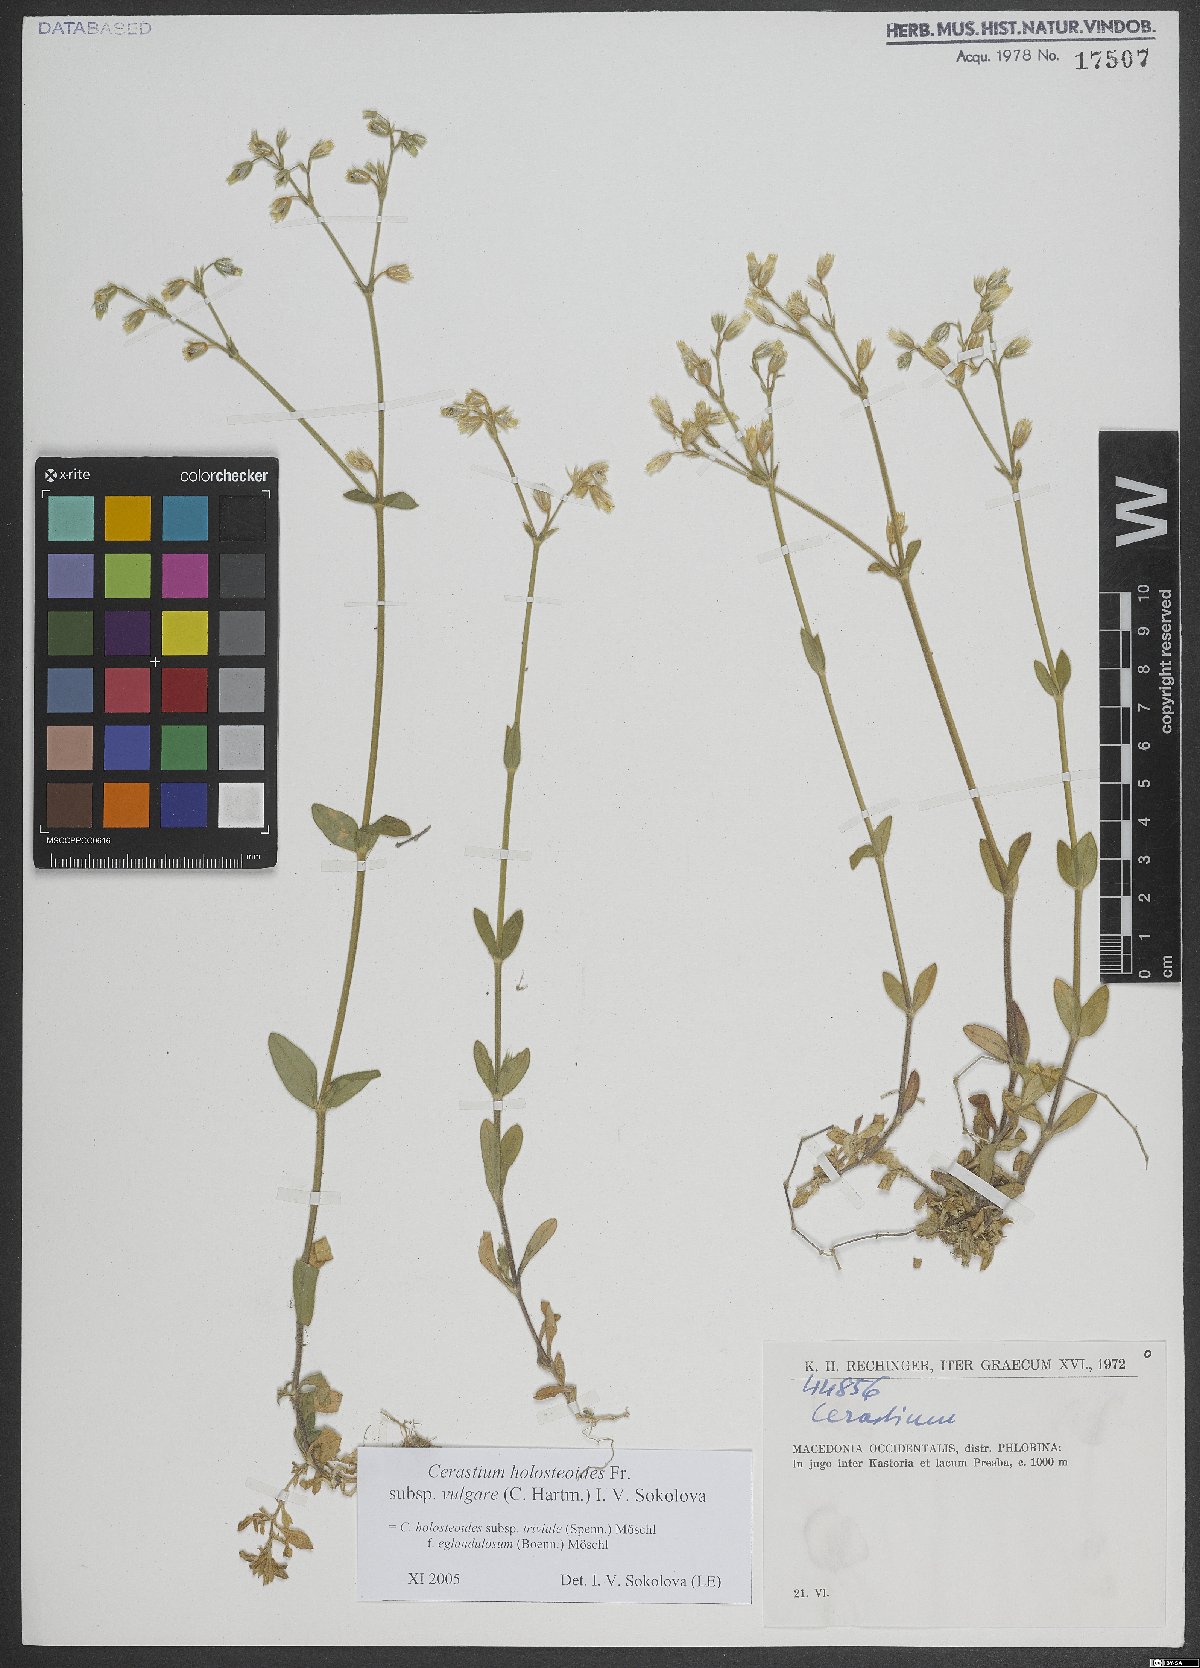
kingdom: Plantae
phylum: Tracheophyta
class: Magnoliopsida
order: Caryophyllales
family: Caryophyllaceae
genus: Cerastium
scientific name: Cerastium holosteoides
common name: Big chickweed
